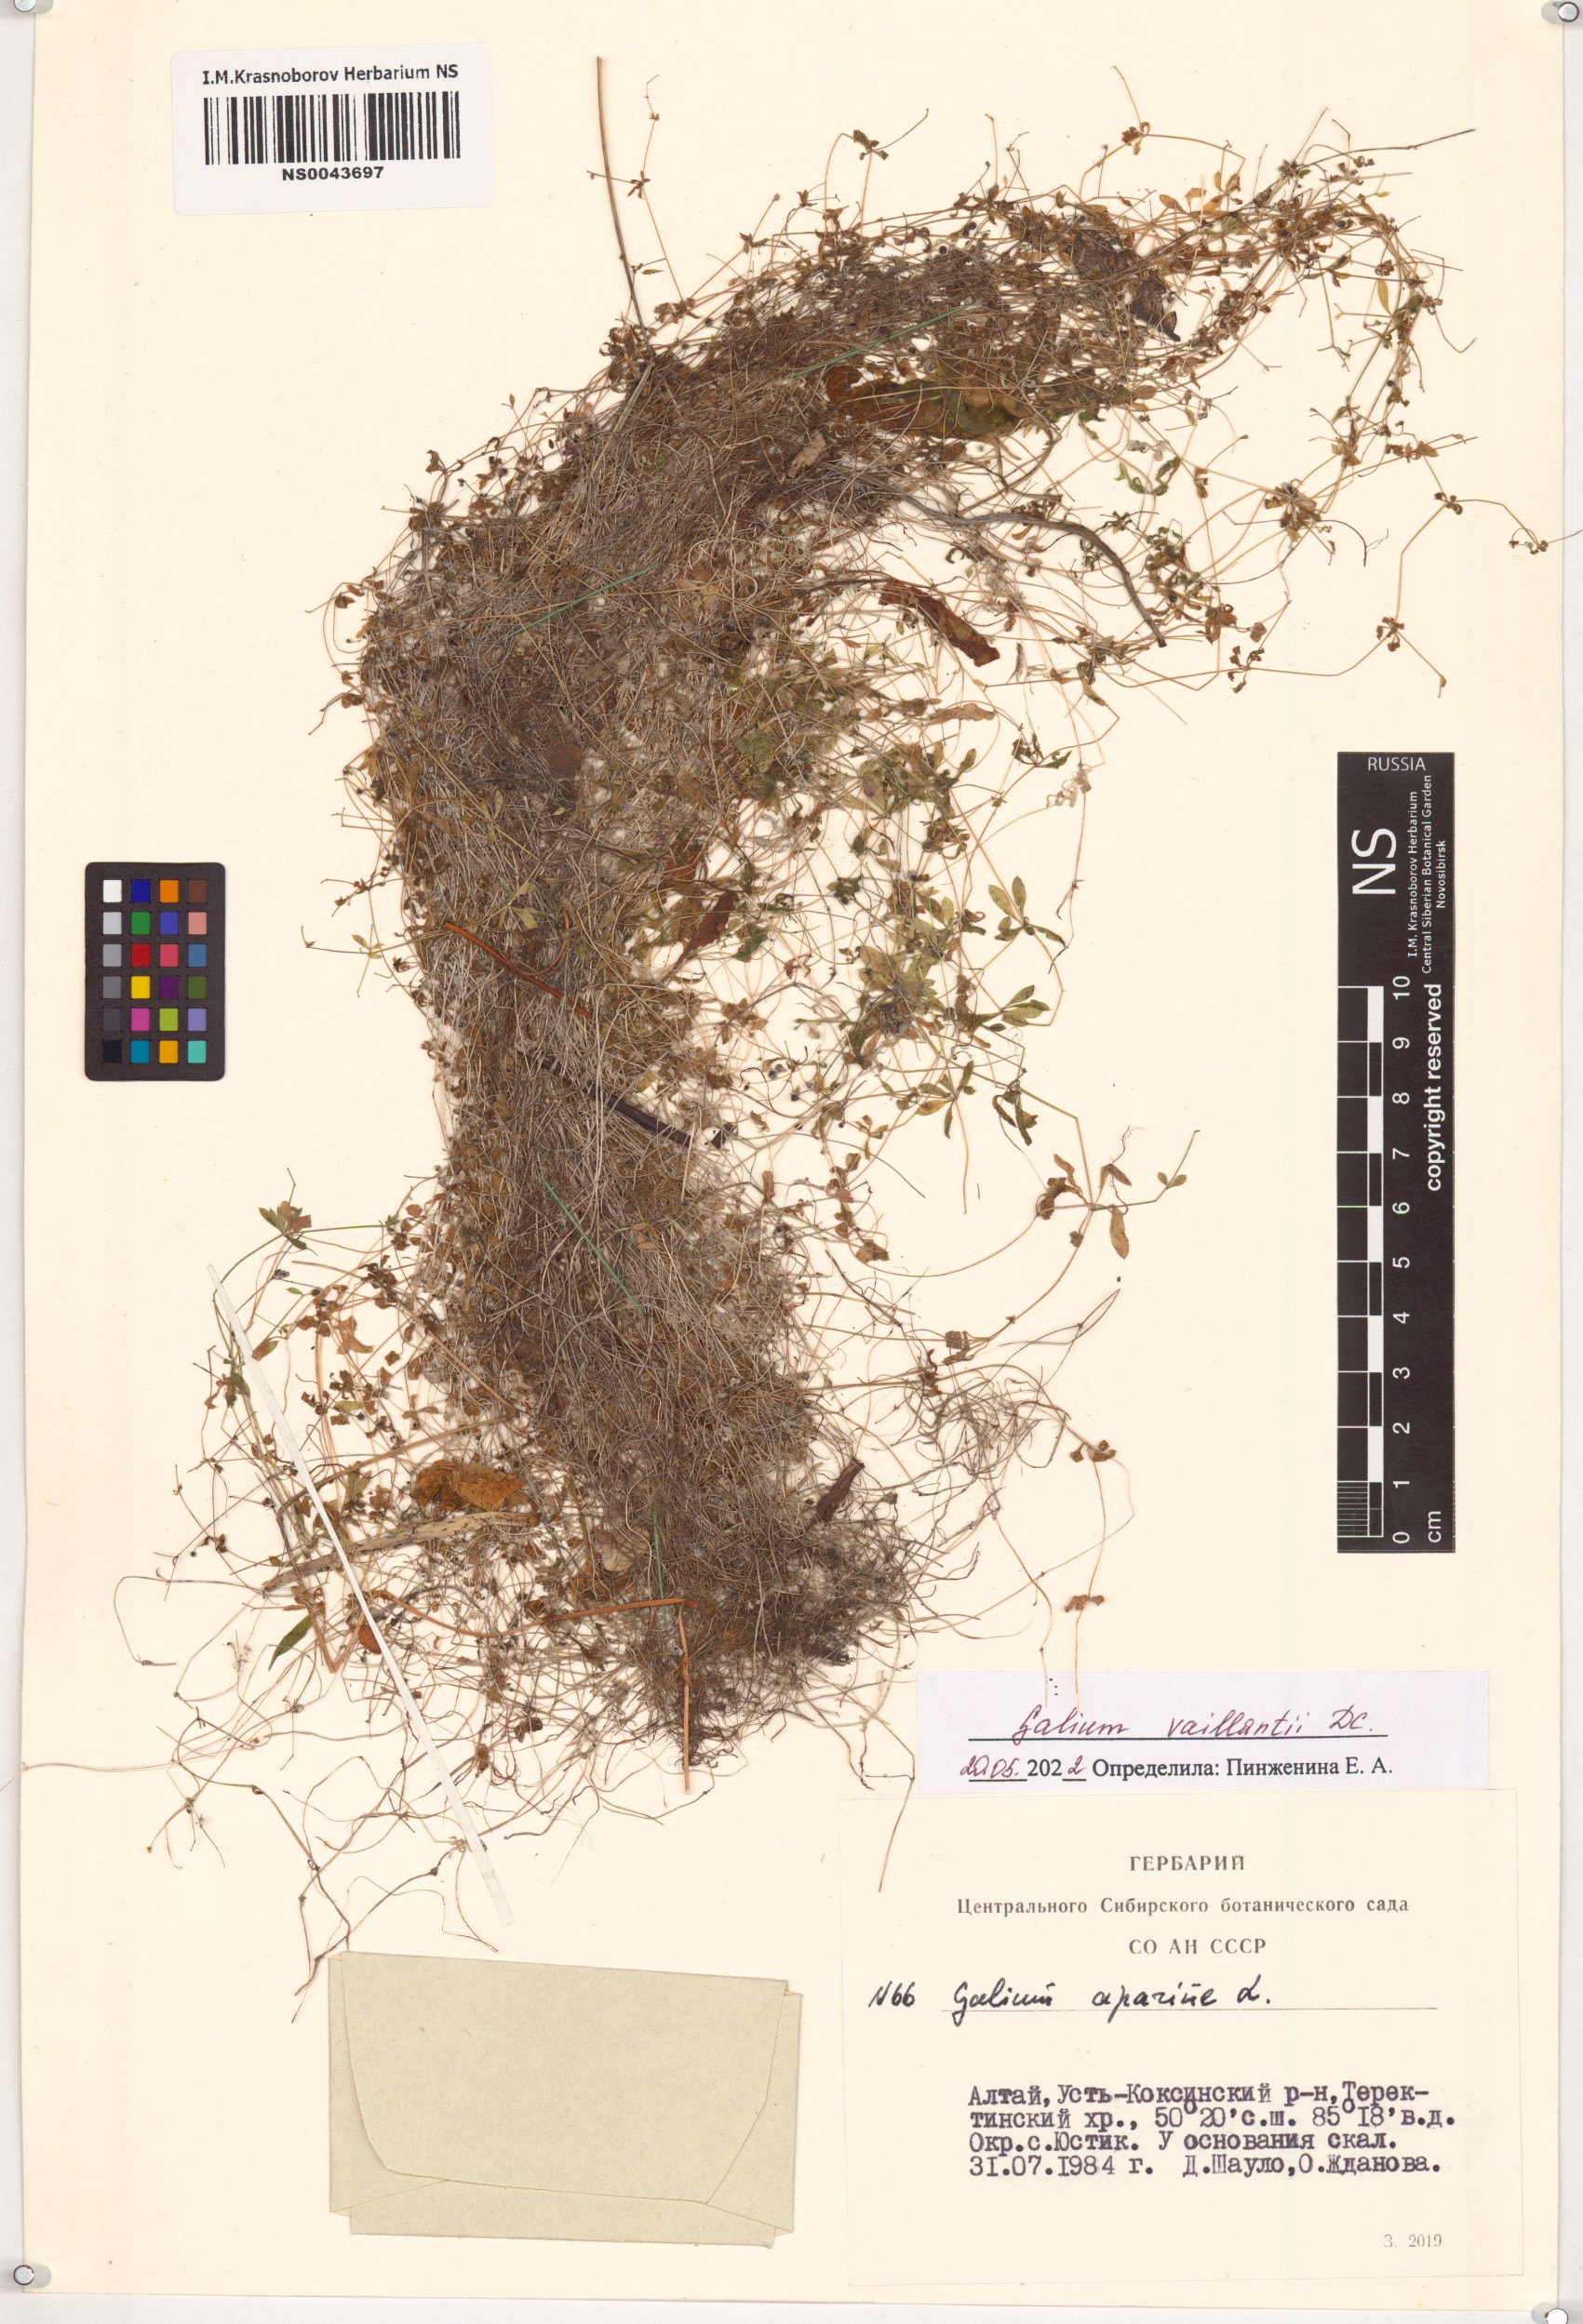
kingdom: Plantae
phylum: Tracheophyta
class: Magnoliopsida
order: Gentianales
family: Rubiaceae
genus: Galium
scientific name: Galium spurium
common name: False cleavers
